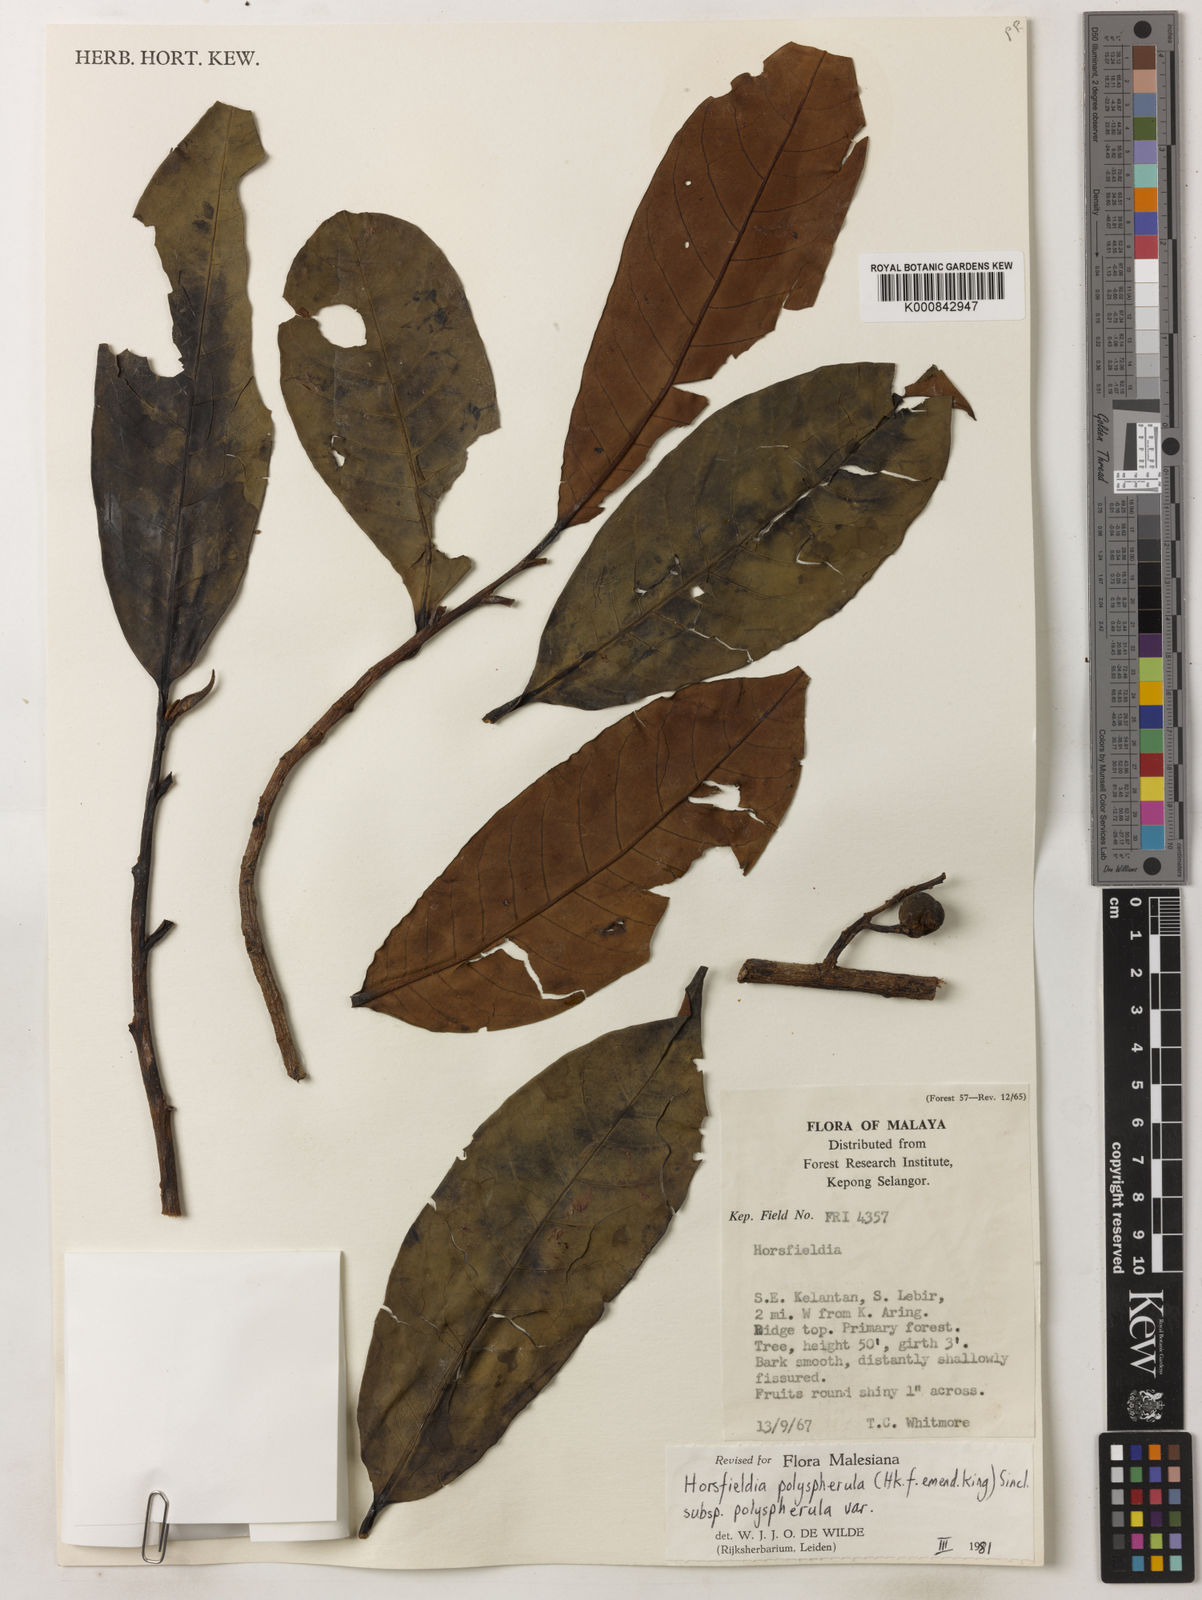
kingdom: Plantae
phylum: Tracheophyta
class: Magnoliopsida
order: Magnoliales
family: Myristicaceae
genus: Horsfieldia
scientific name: Horsfieldia
